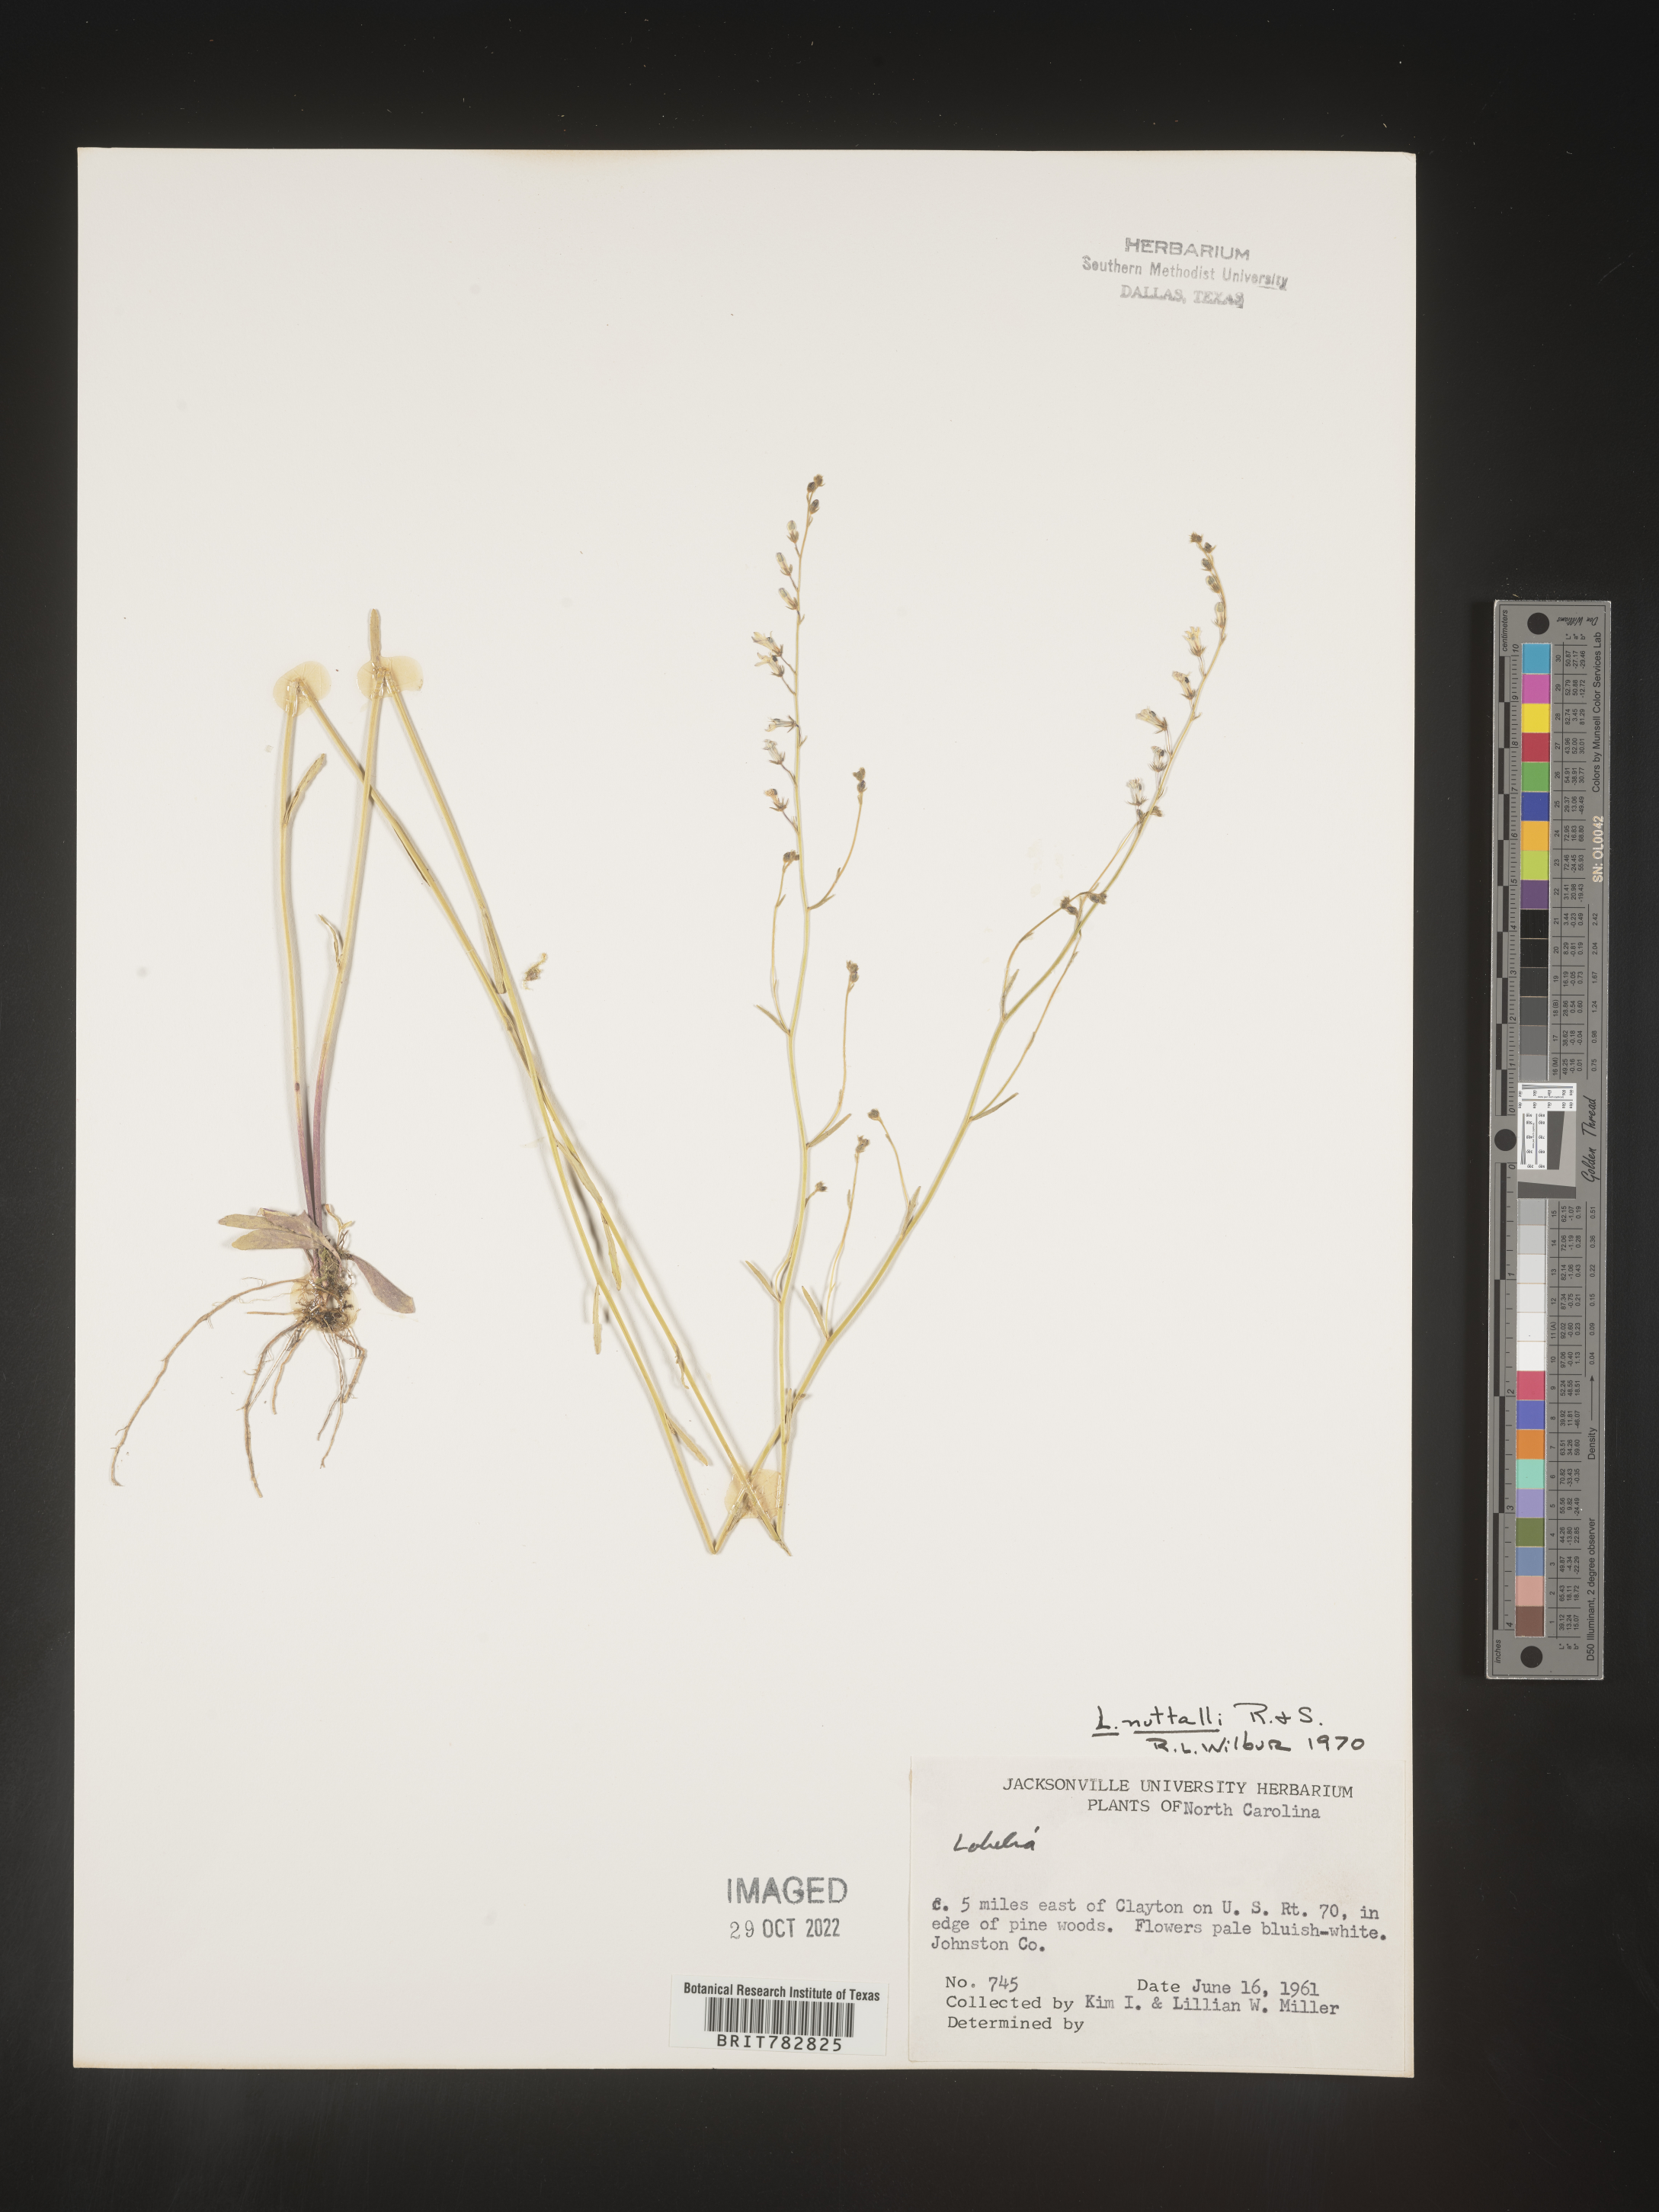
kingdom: Plantae
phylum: Tracheophyta
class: Magnoliopsida
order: Asterales
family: Campanulaceae
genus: Lobelia
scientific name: Lobelia nuttallii
